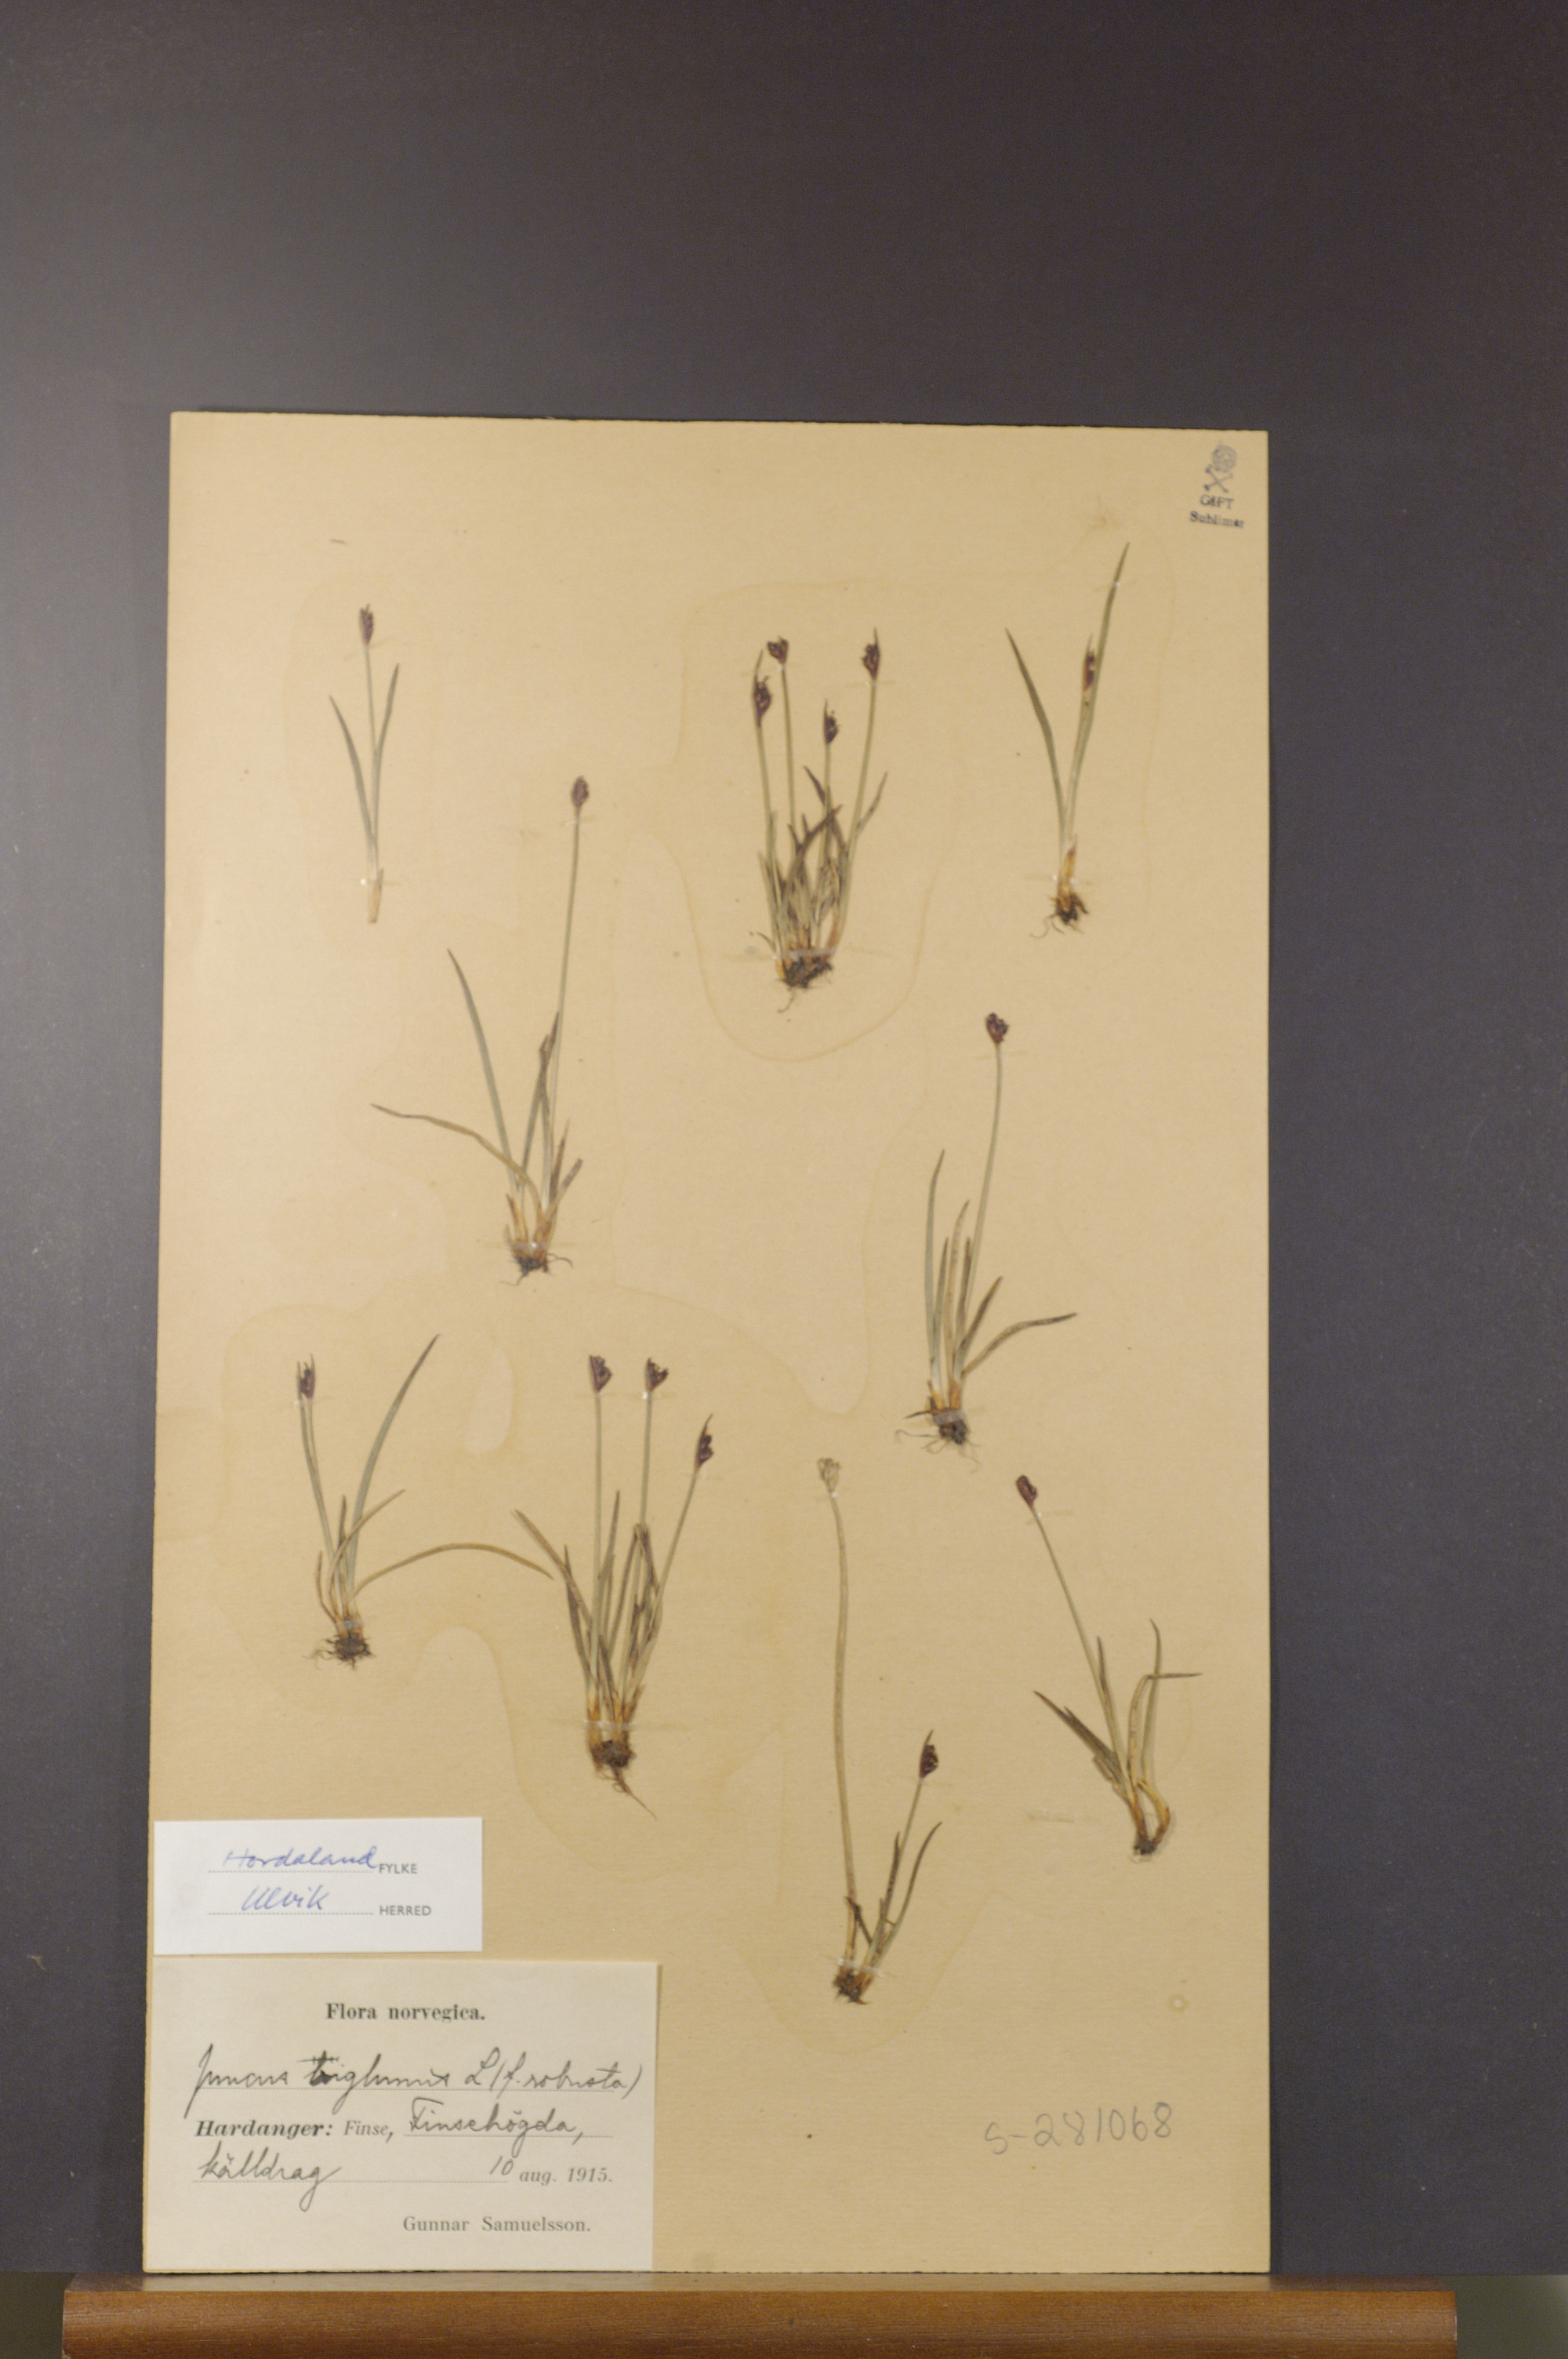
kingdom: Plantae
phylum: Tracheophyta
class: Liliopsida
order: Poales
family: Juncaceae
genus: Juncus
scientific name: Juncus biglumis
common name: Two-flowered rush
